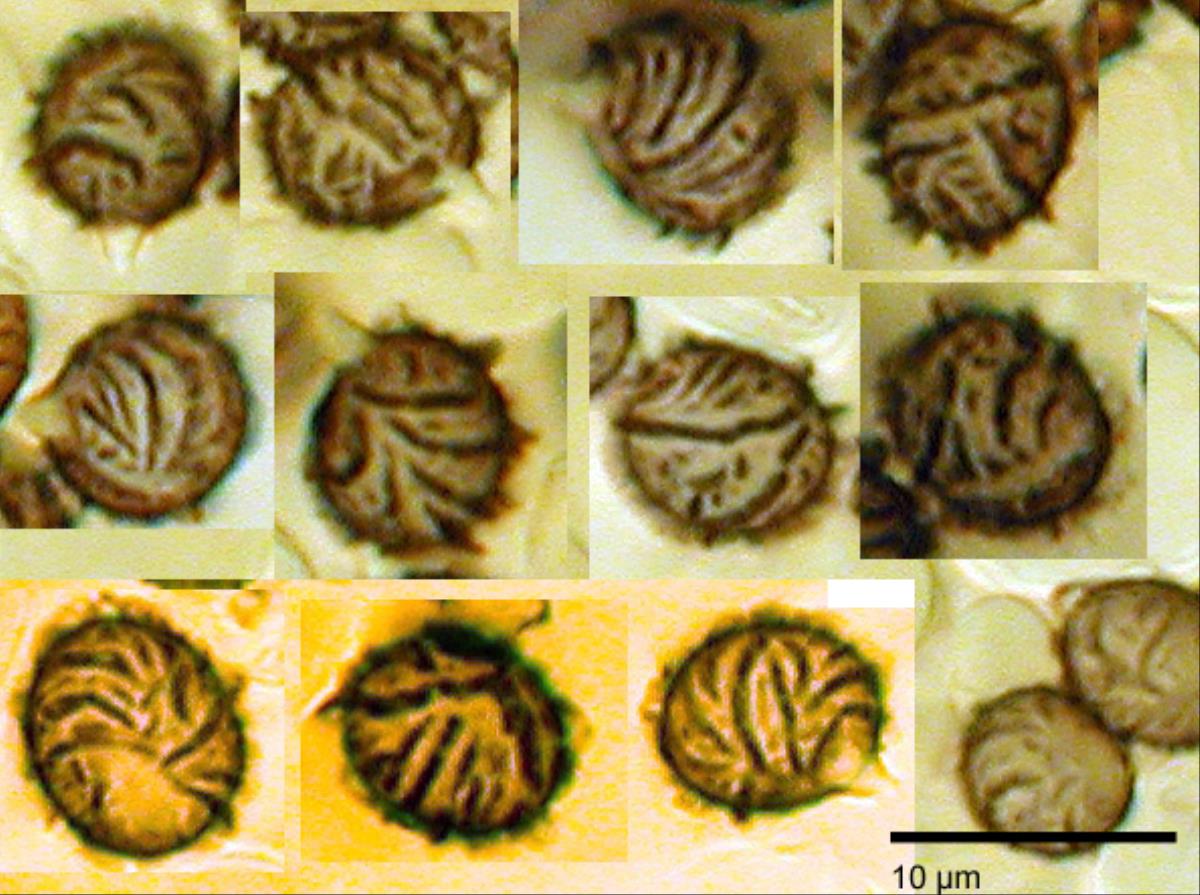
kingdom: Fungi
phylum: Basidiomycota
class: Agaricomycetes
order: Russulales
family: Russulaceae
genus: Lactarius
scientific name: Lactarius umerensis
